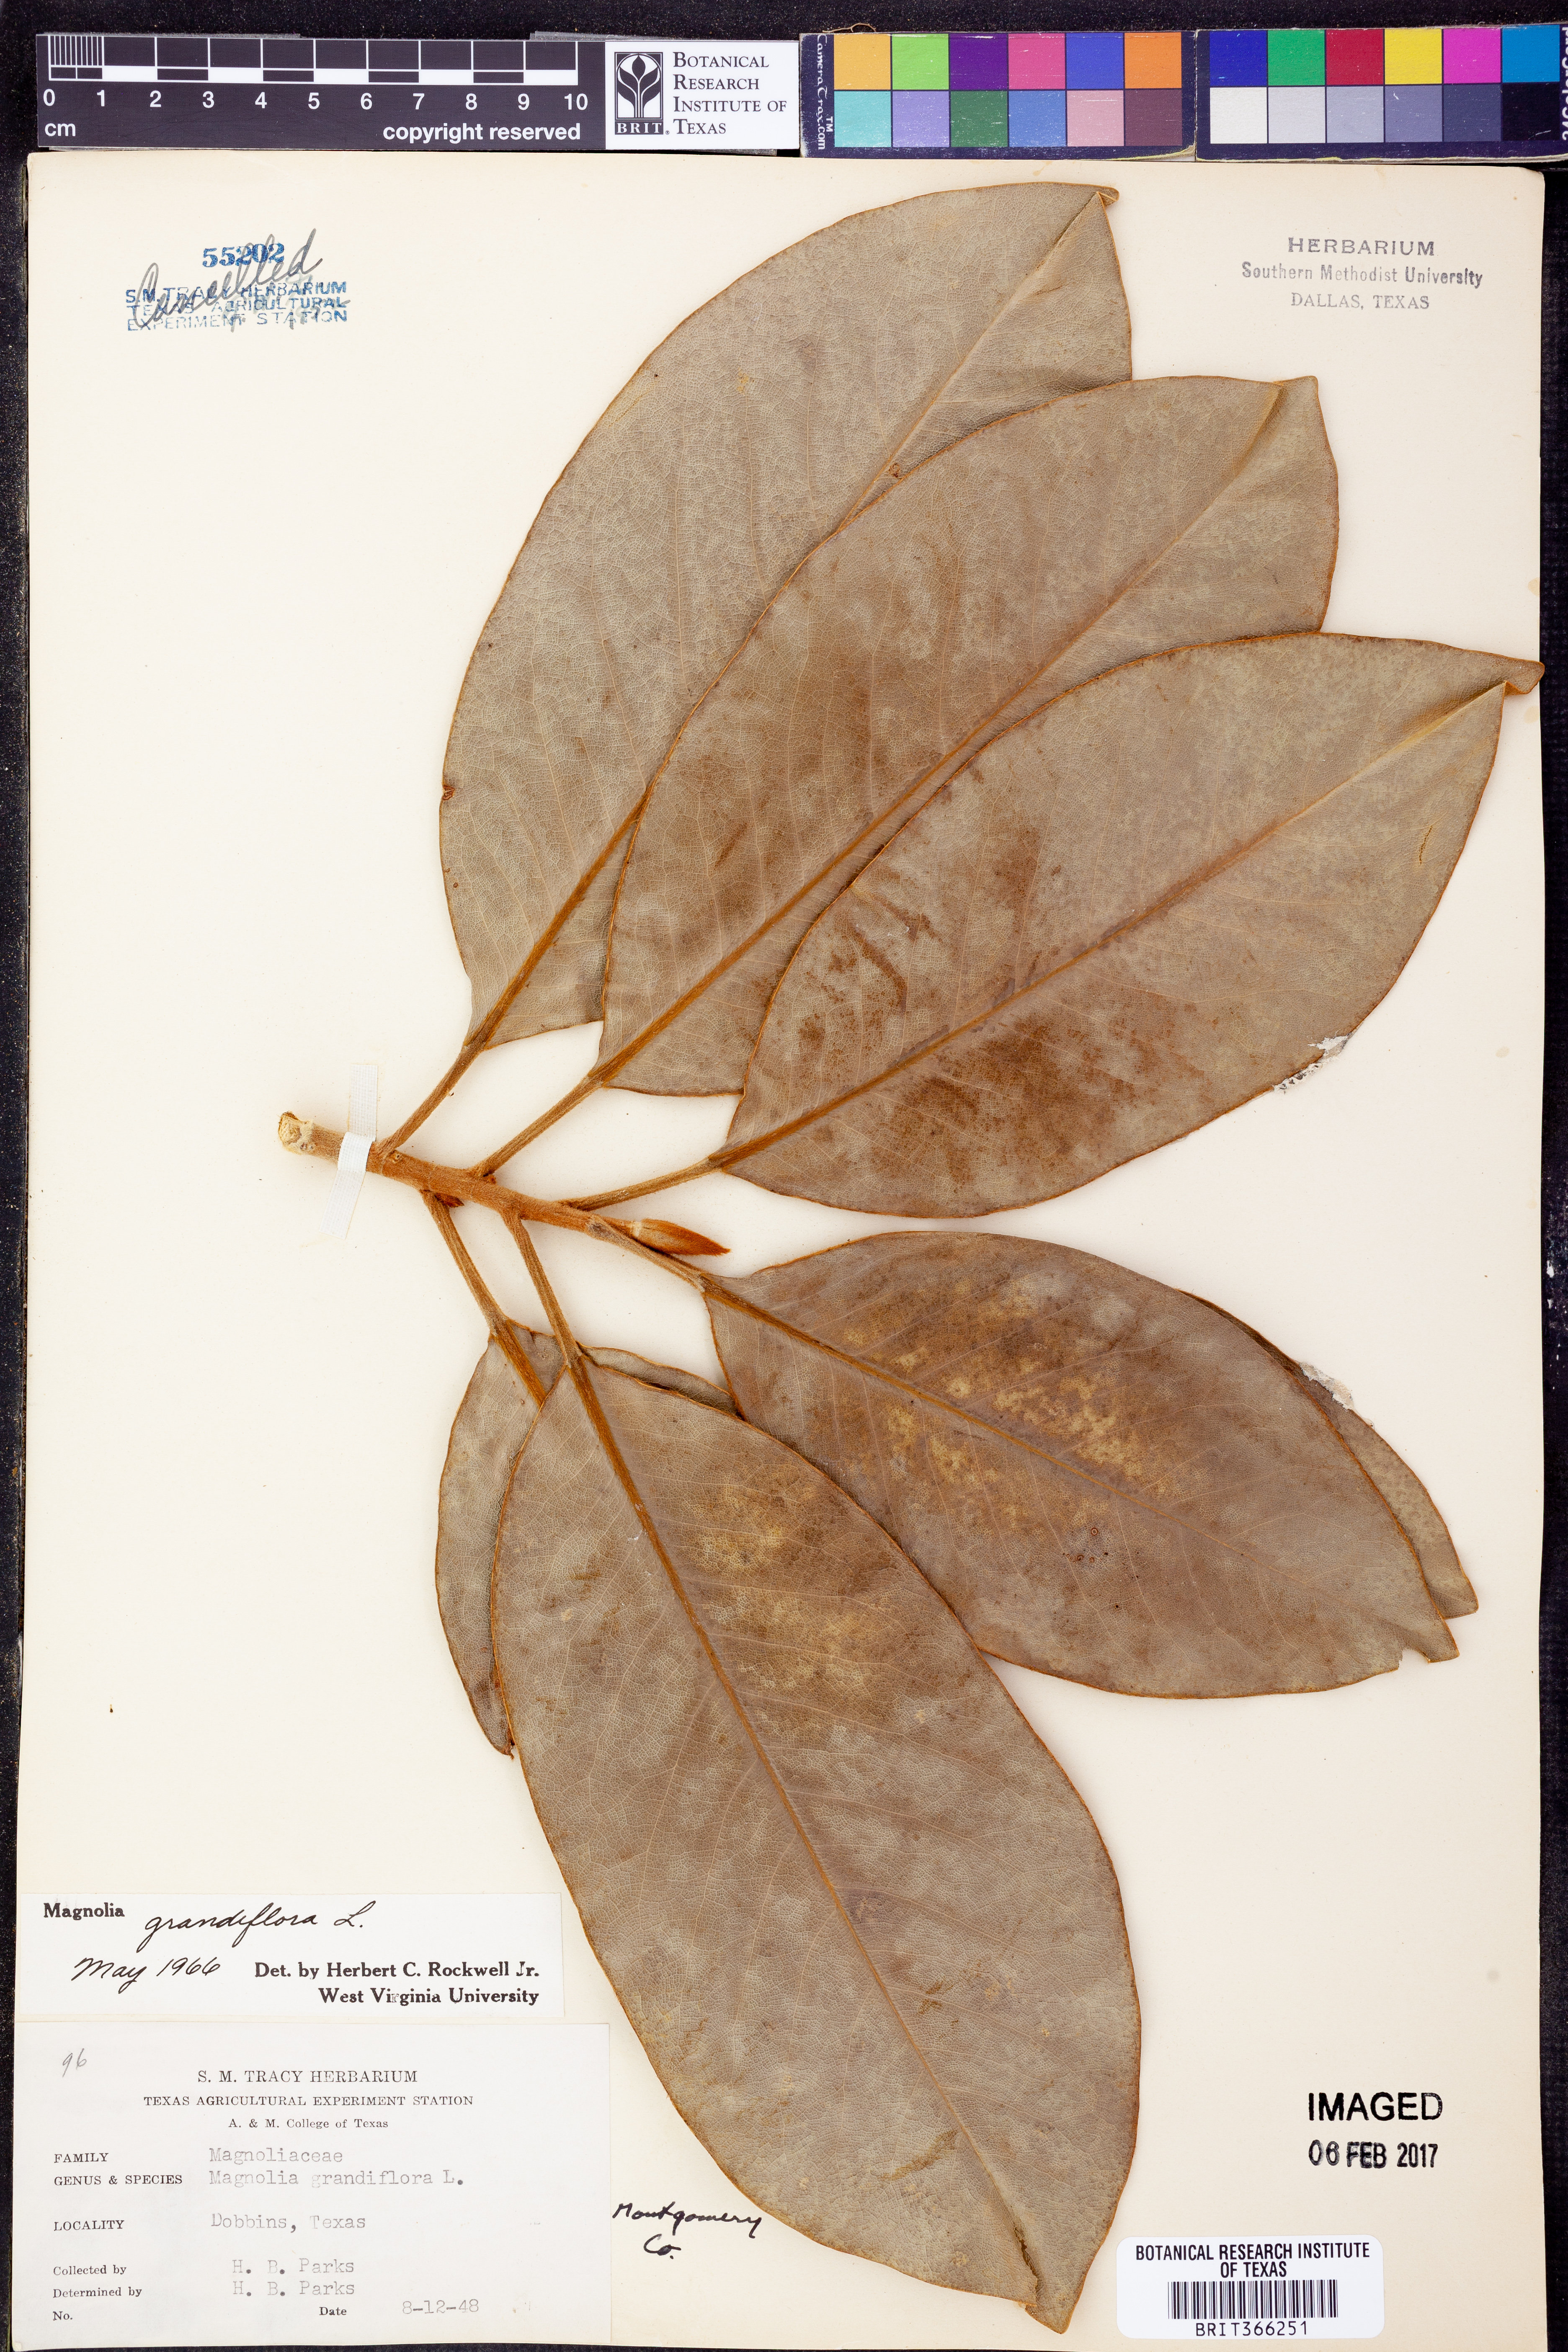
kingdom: Plantae
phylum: Tracheophyta
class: Magnoliopsida
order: Magnoliales
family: Magnoliaceae
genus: Magnolia
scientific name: Magnolia grandiflora
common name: Southern magnolia
